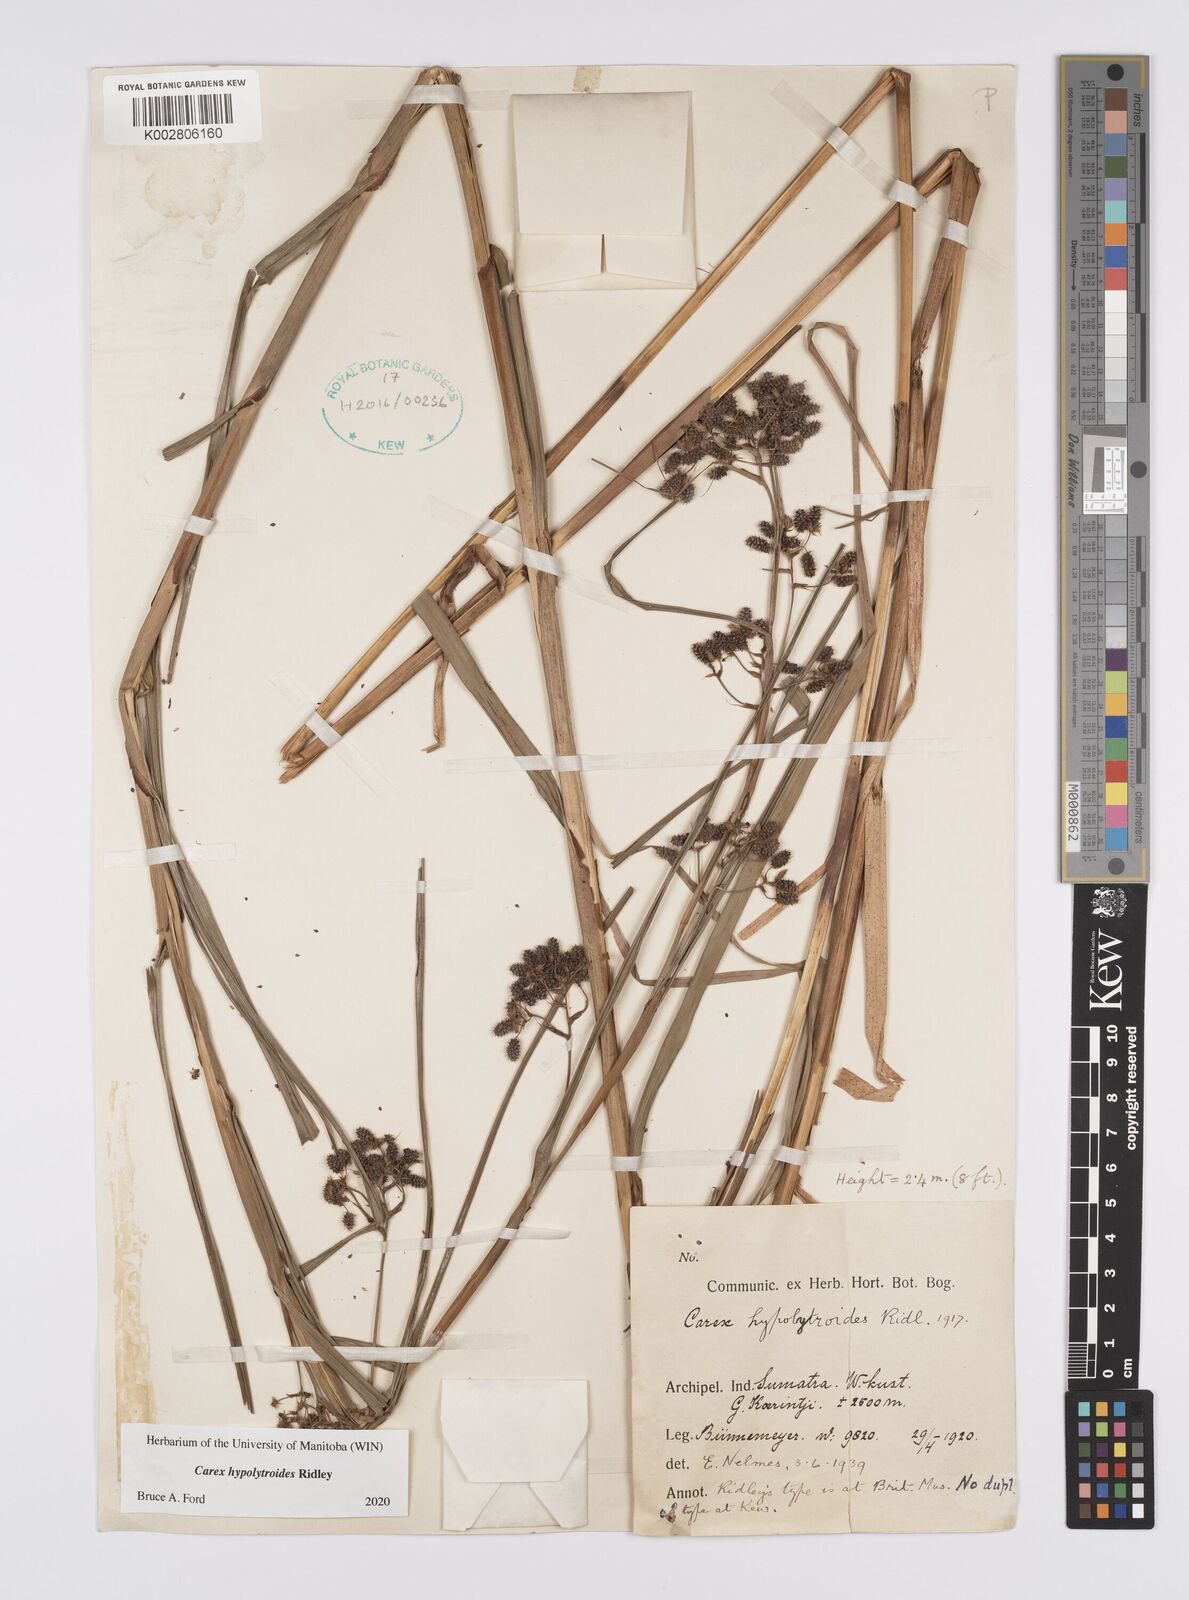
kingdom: Plantae
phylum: Tracheophyta
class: Liliopsida
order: Poales
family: Cyperaceae
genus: Carex
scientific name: Carex hypolytroides
